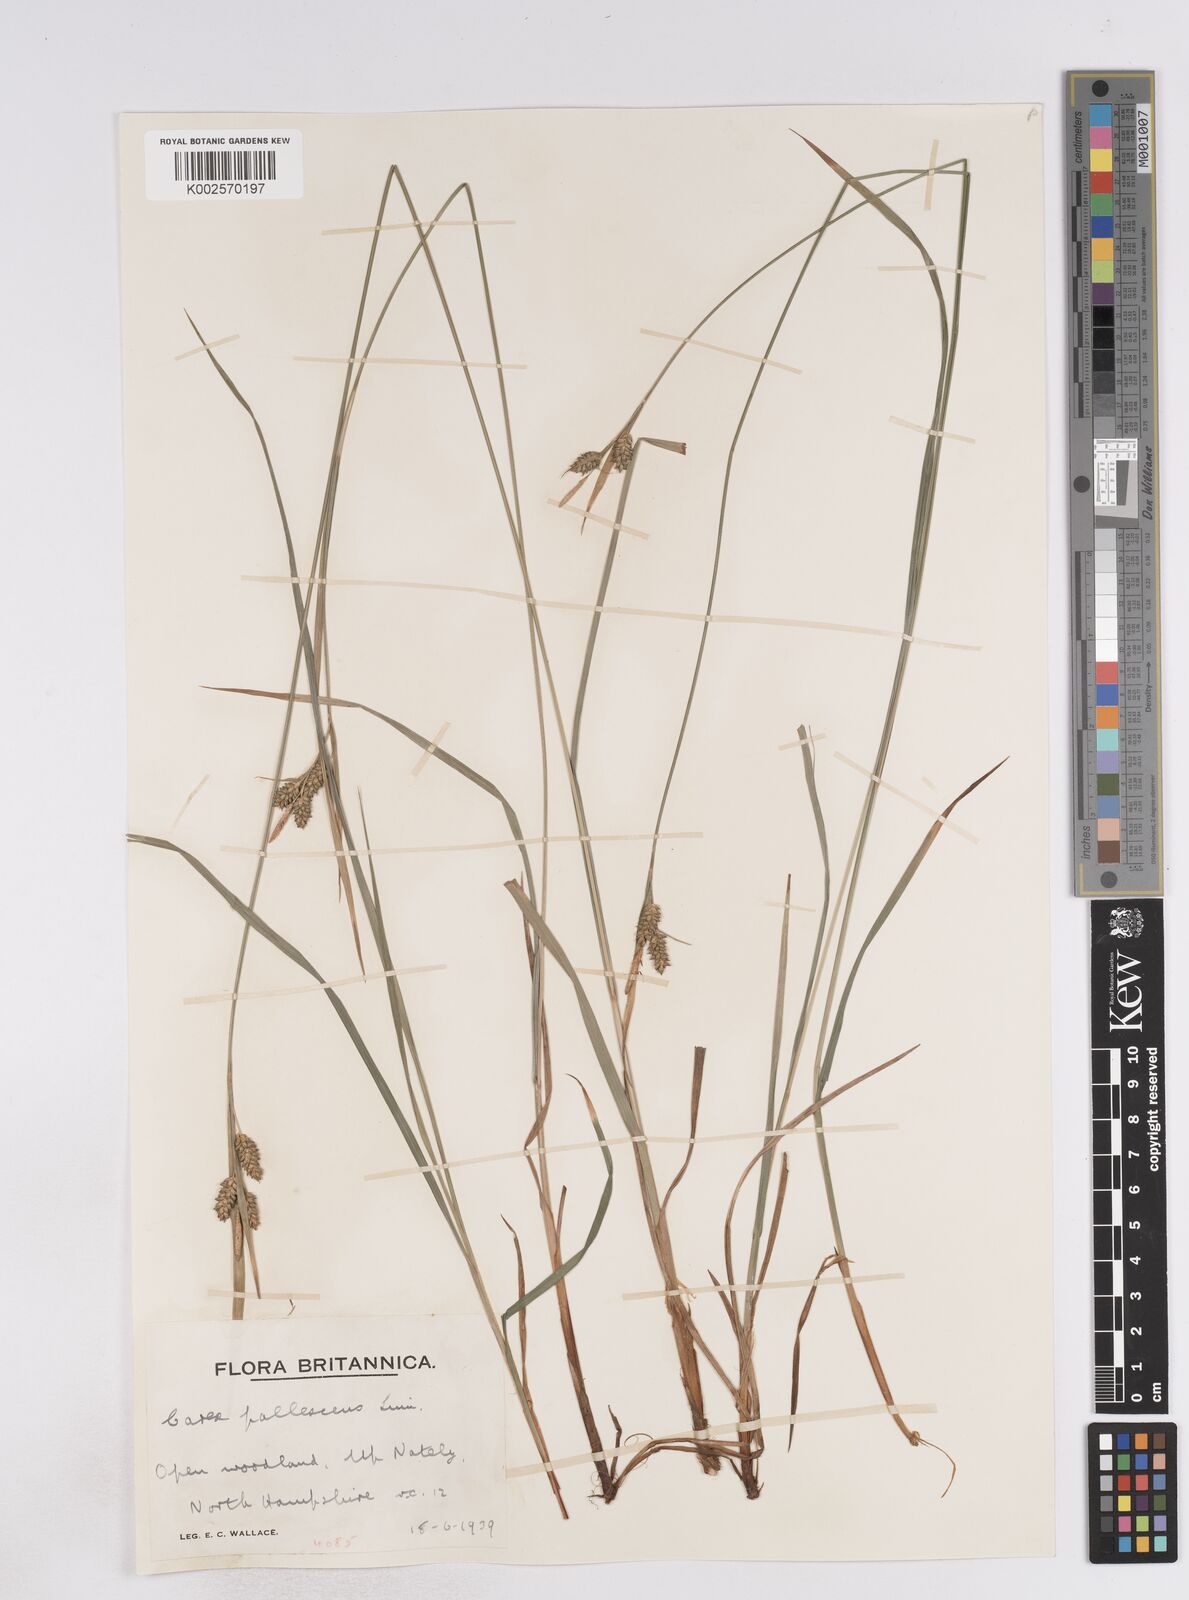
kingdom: Plantae
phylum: Tracheophyta
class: Liliopsida
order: Poales
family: Cyperaceae
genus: Carex
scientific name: Carex pallescens
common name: Pale sedge
